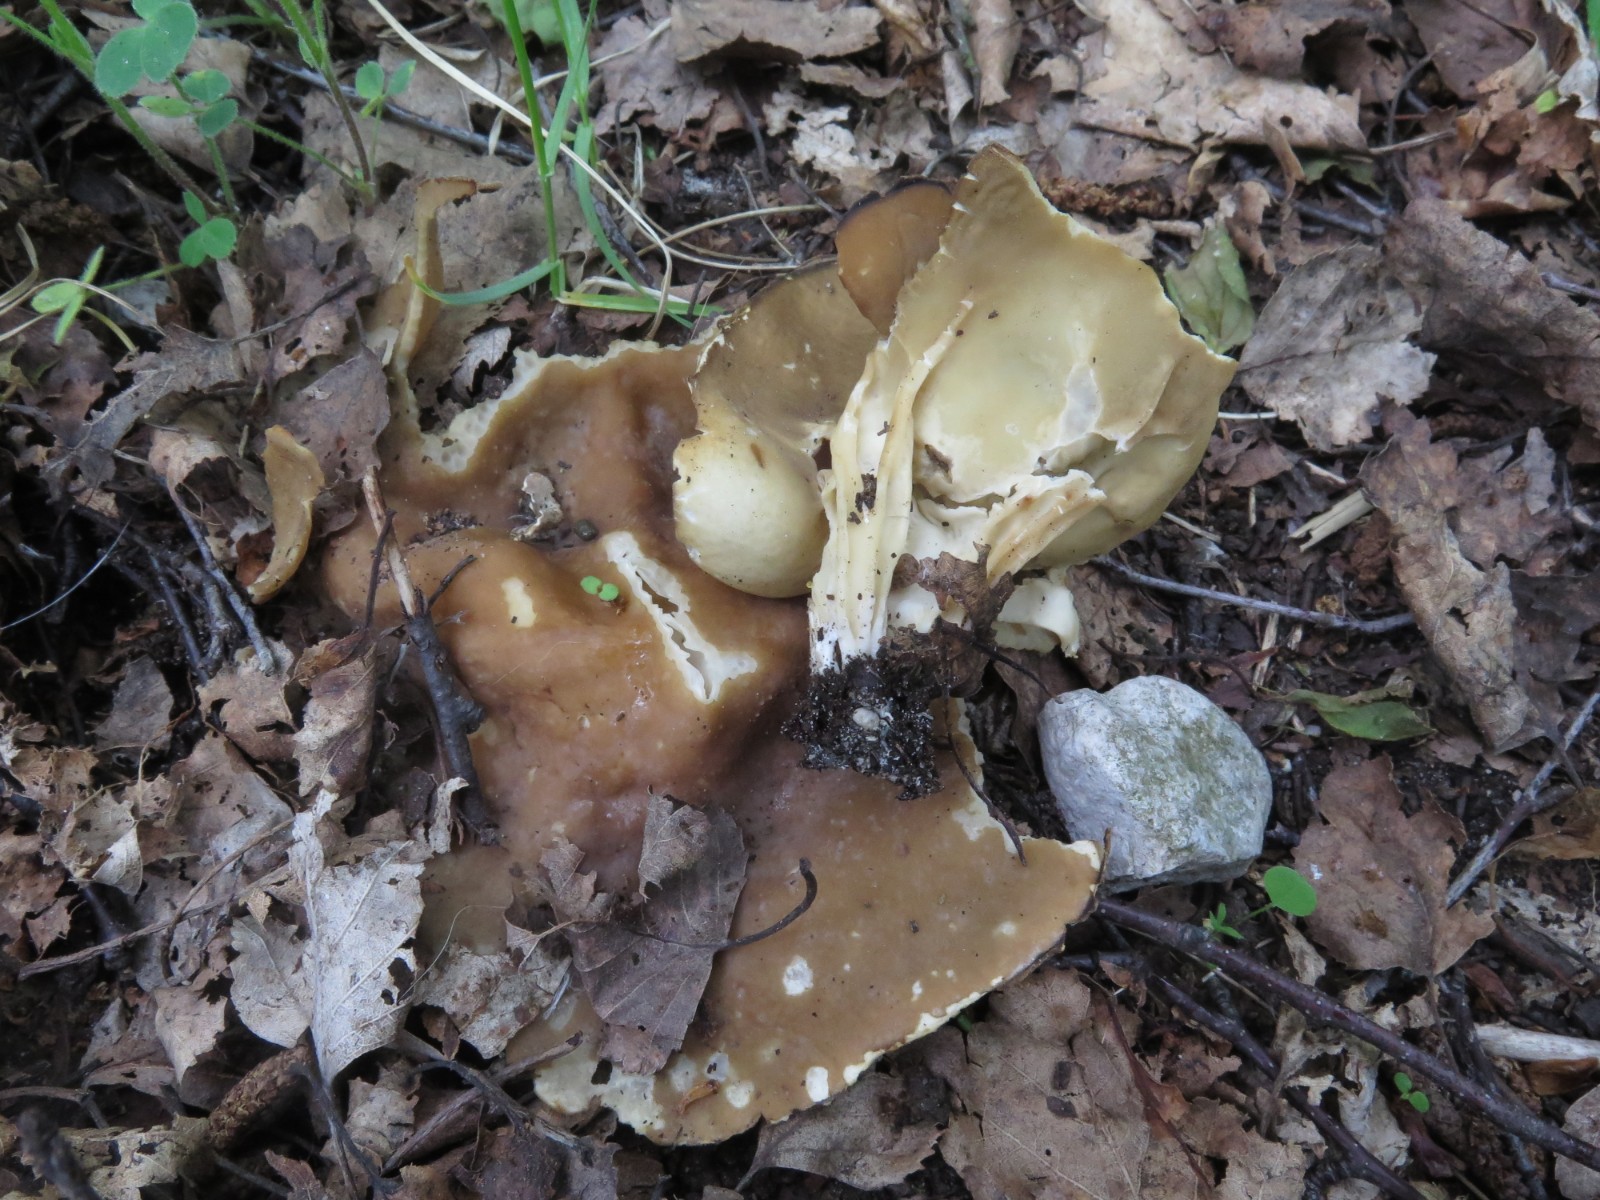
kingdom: Fungi
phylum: Ascomycota
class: Pezizomycetes
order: Pezizales
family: Helvellaceae
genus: Helvella
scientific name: Helvella acetabulum
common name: pokal-foldhat
